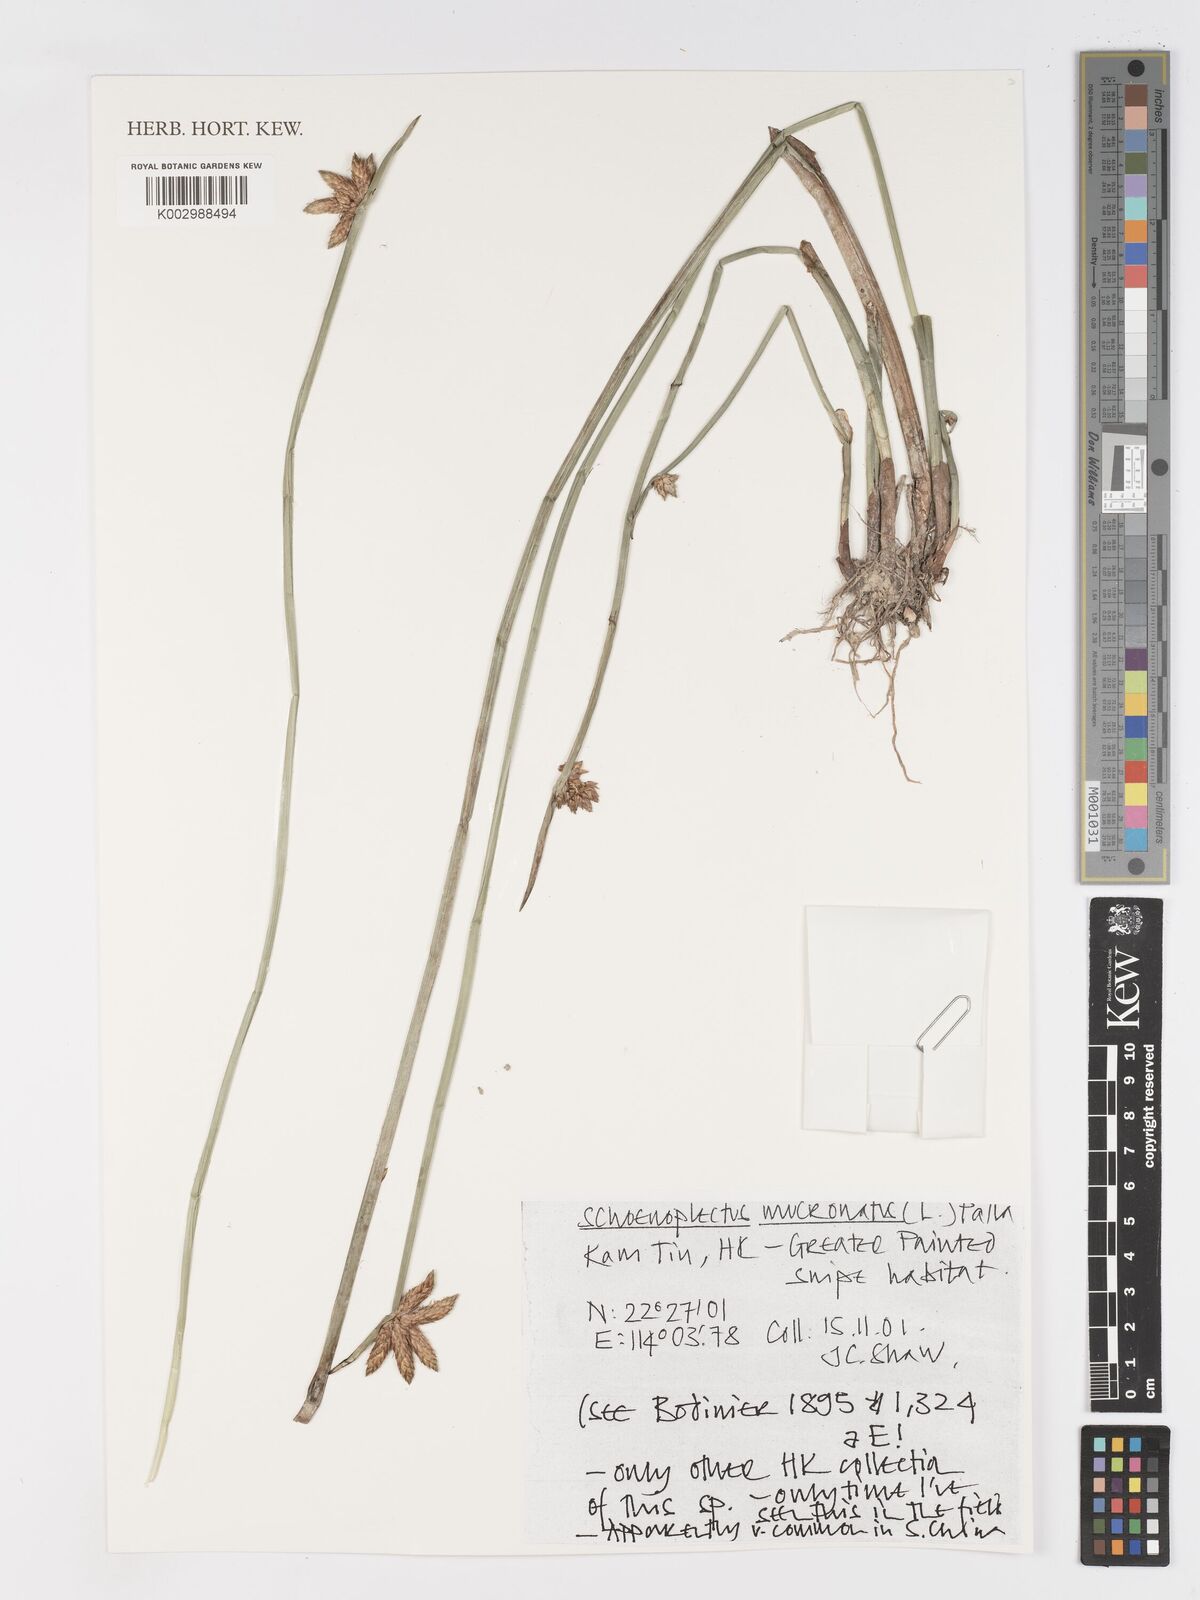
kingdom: Plantae
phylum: Tracheophyta
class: Liliopsida
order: Poales
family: Cyperaceae
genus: Schoenoplectiella
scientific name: Schoenoplectiella mucronata
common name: Bog bulrush
